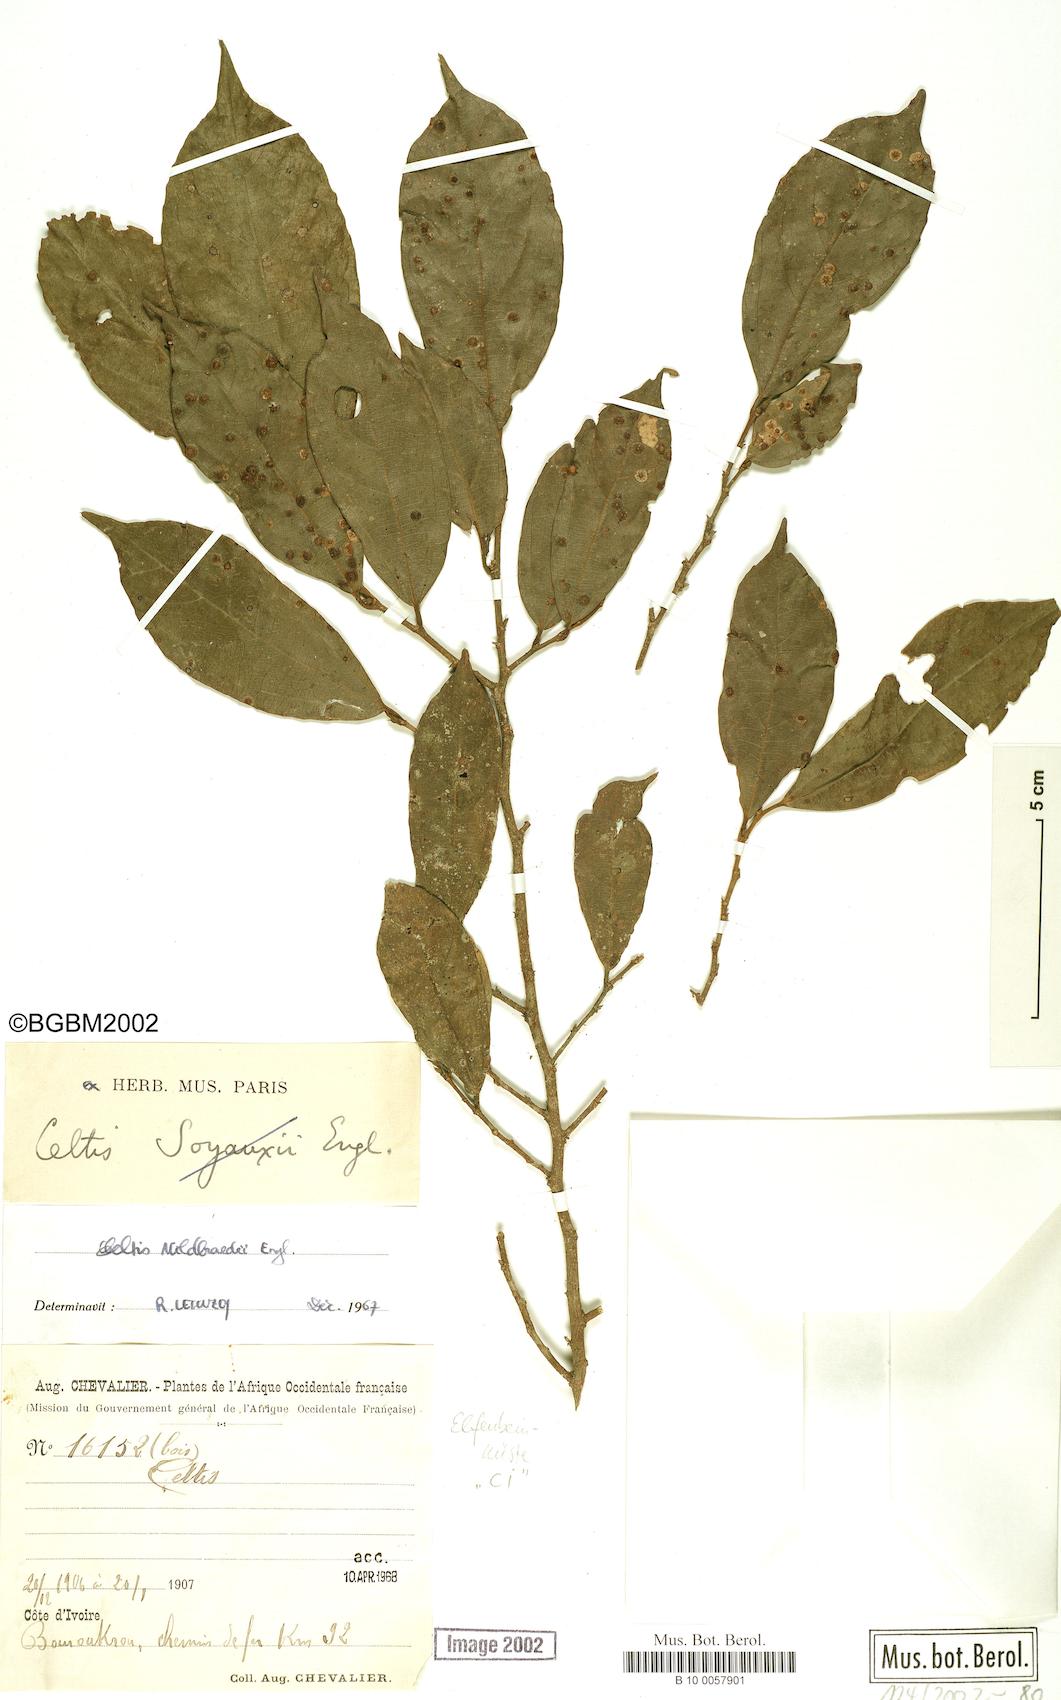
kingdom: Plantae
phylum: Tracheophyta
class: Magnoliopsida
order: Rosales
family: Cannabaceae
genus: Celtis
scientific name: Celtis mildbraedii
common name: Red-fruited stinkwood
